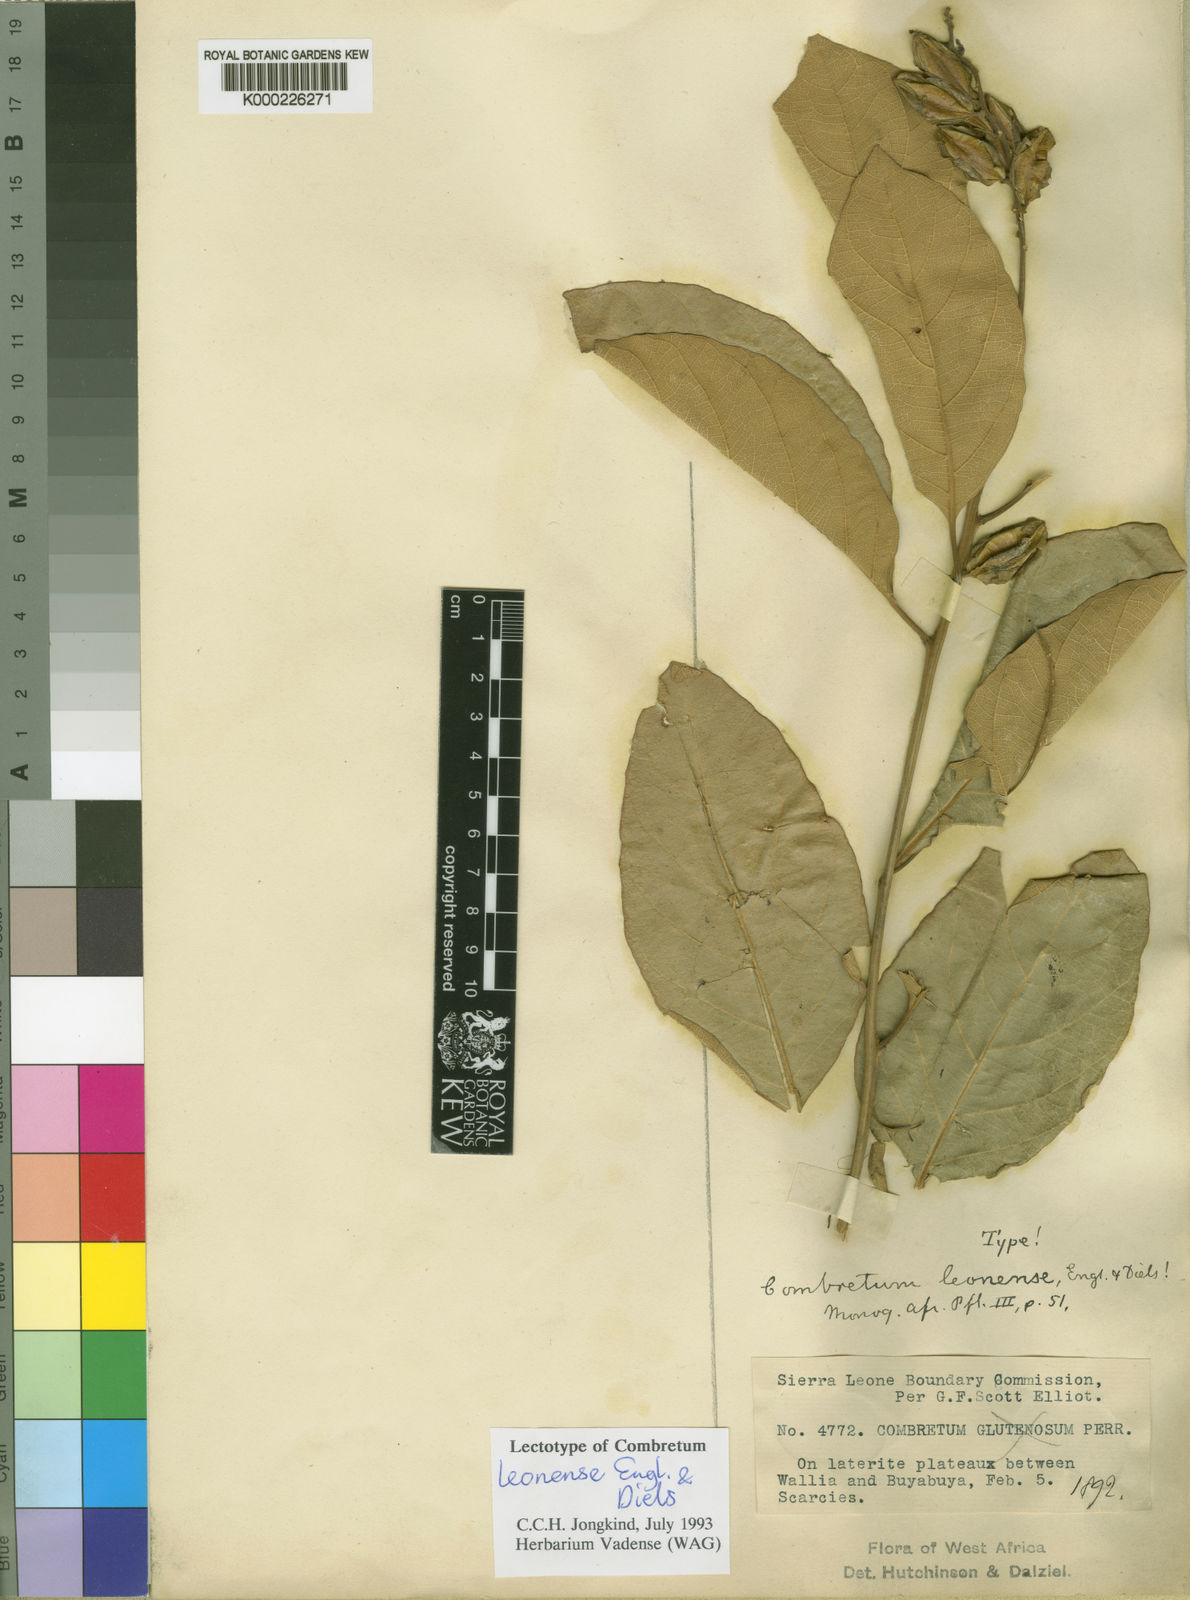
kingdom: Plantae
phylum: Tracheophyta
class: Magnoliopsida
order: Myrtales
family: Combretaceae
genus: Combretum
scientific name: Combretum glutinosum
